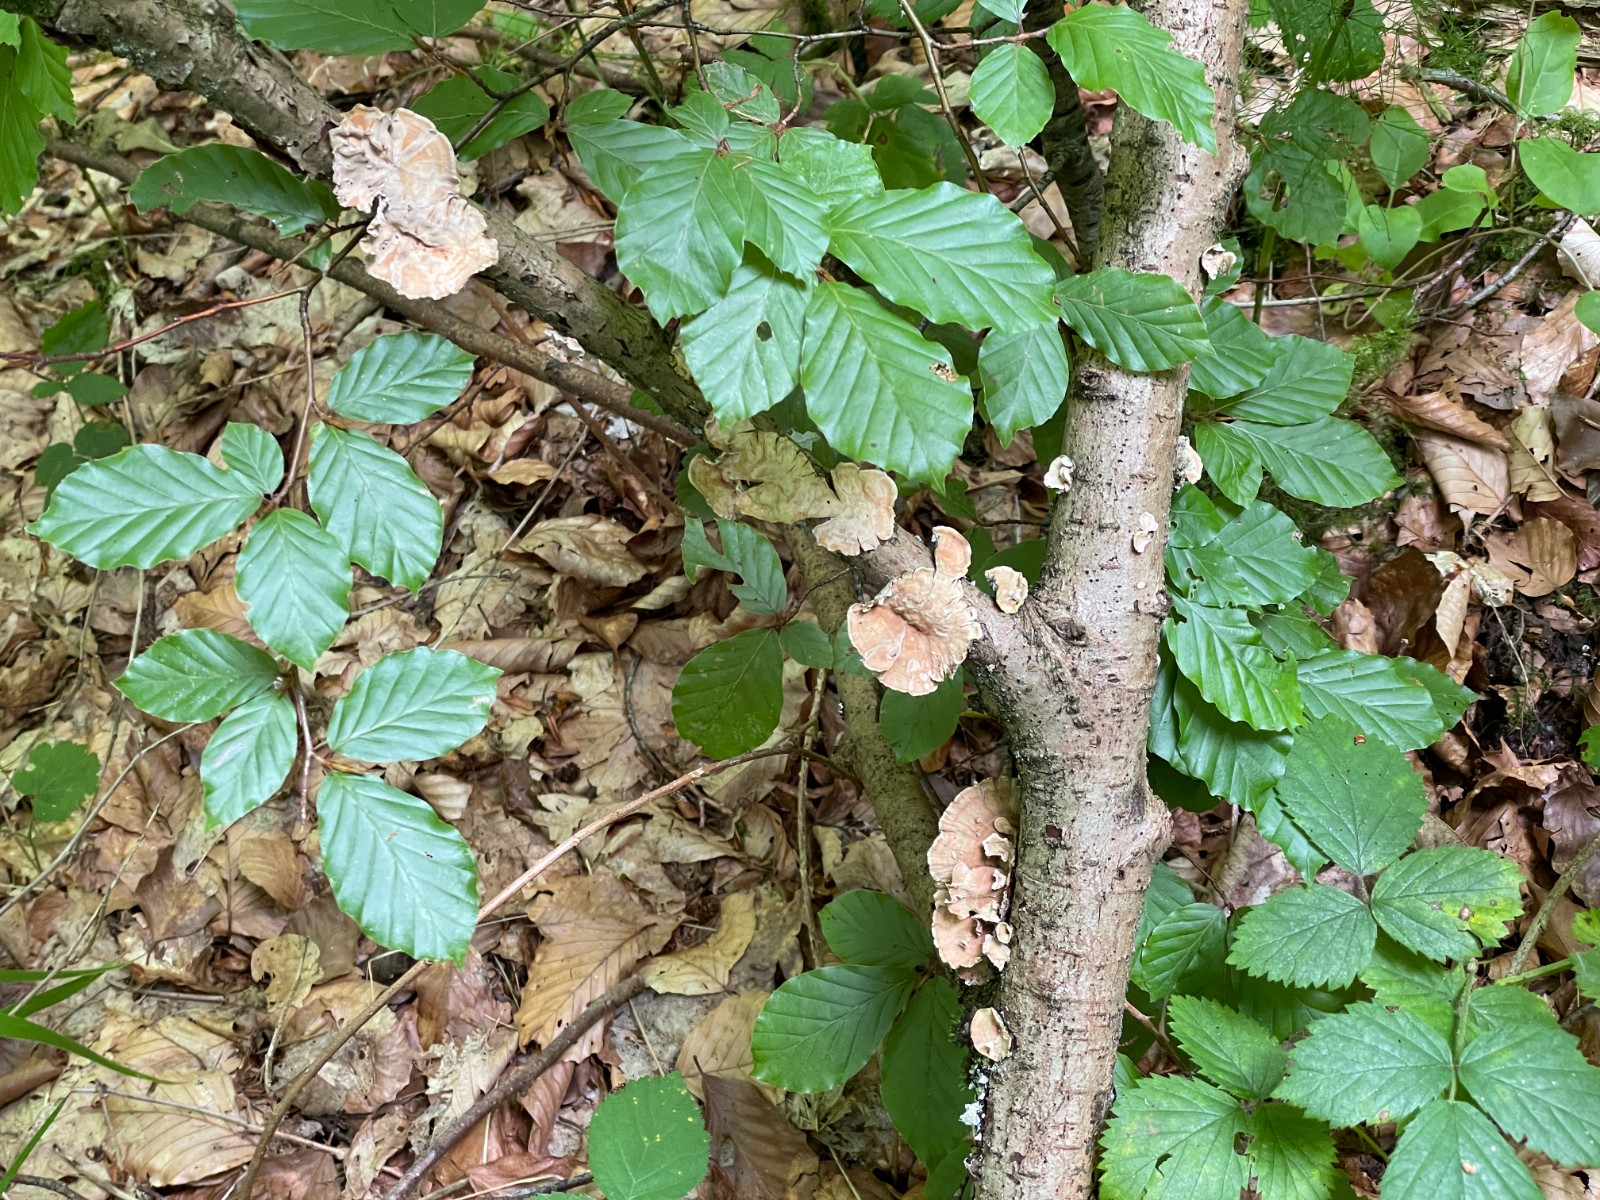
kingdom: Fungi
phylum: Basidiomycota
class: Agaricomycetes
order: Russulales
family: Stereaceae
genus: Stereum
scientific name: Stereum subtomentosum
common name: smuk lædersvamp
